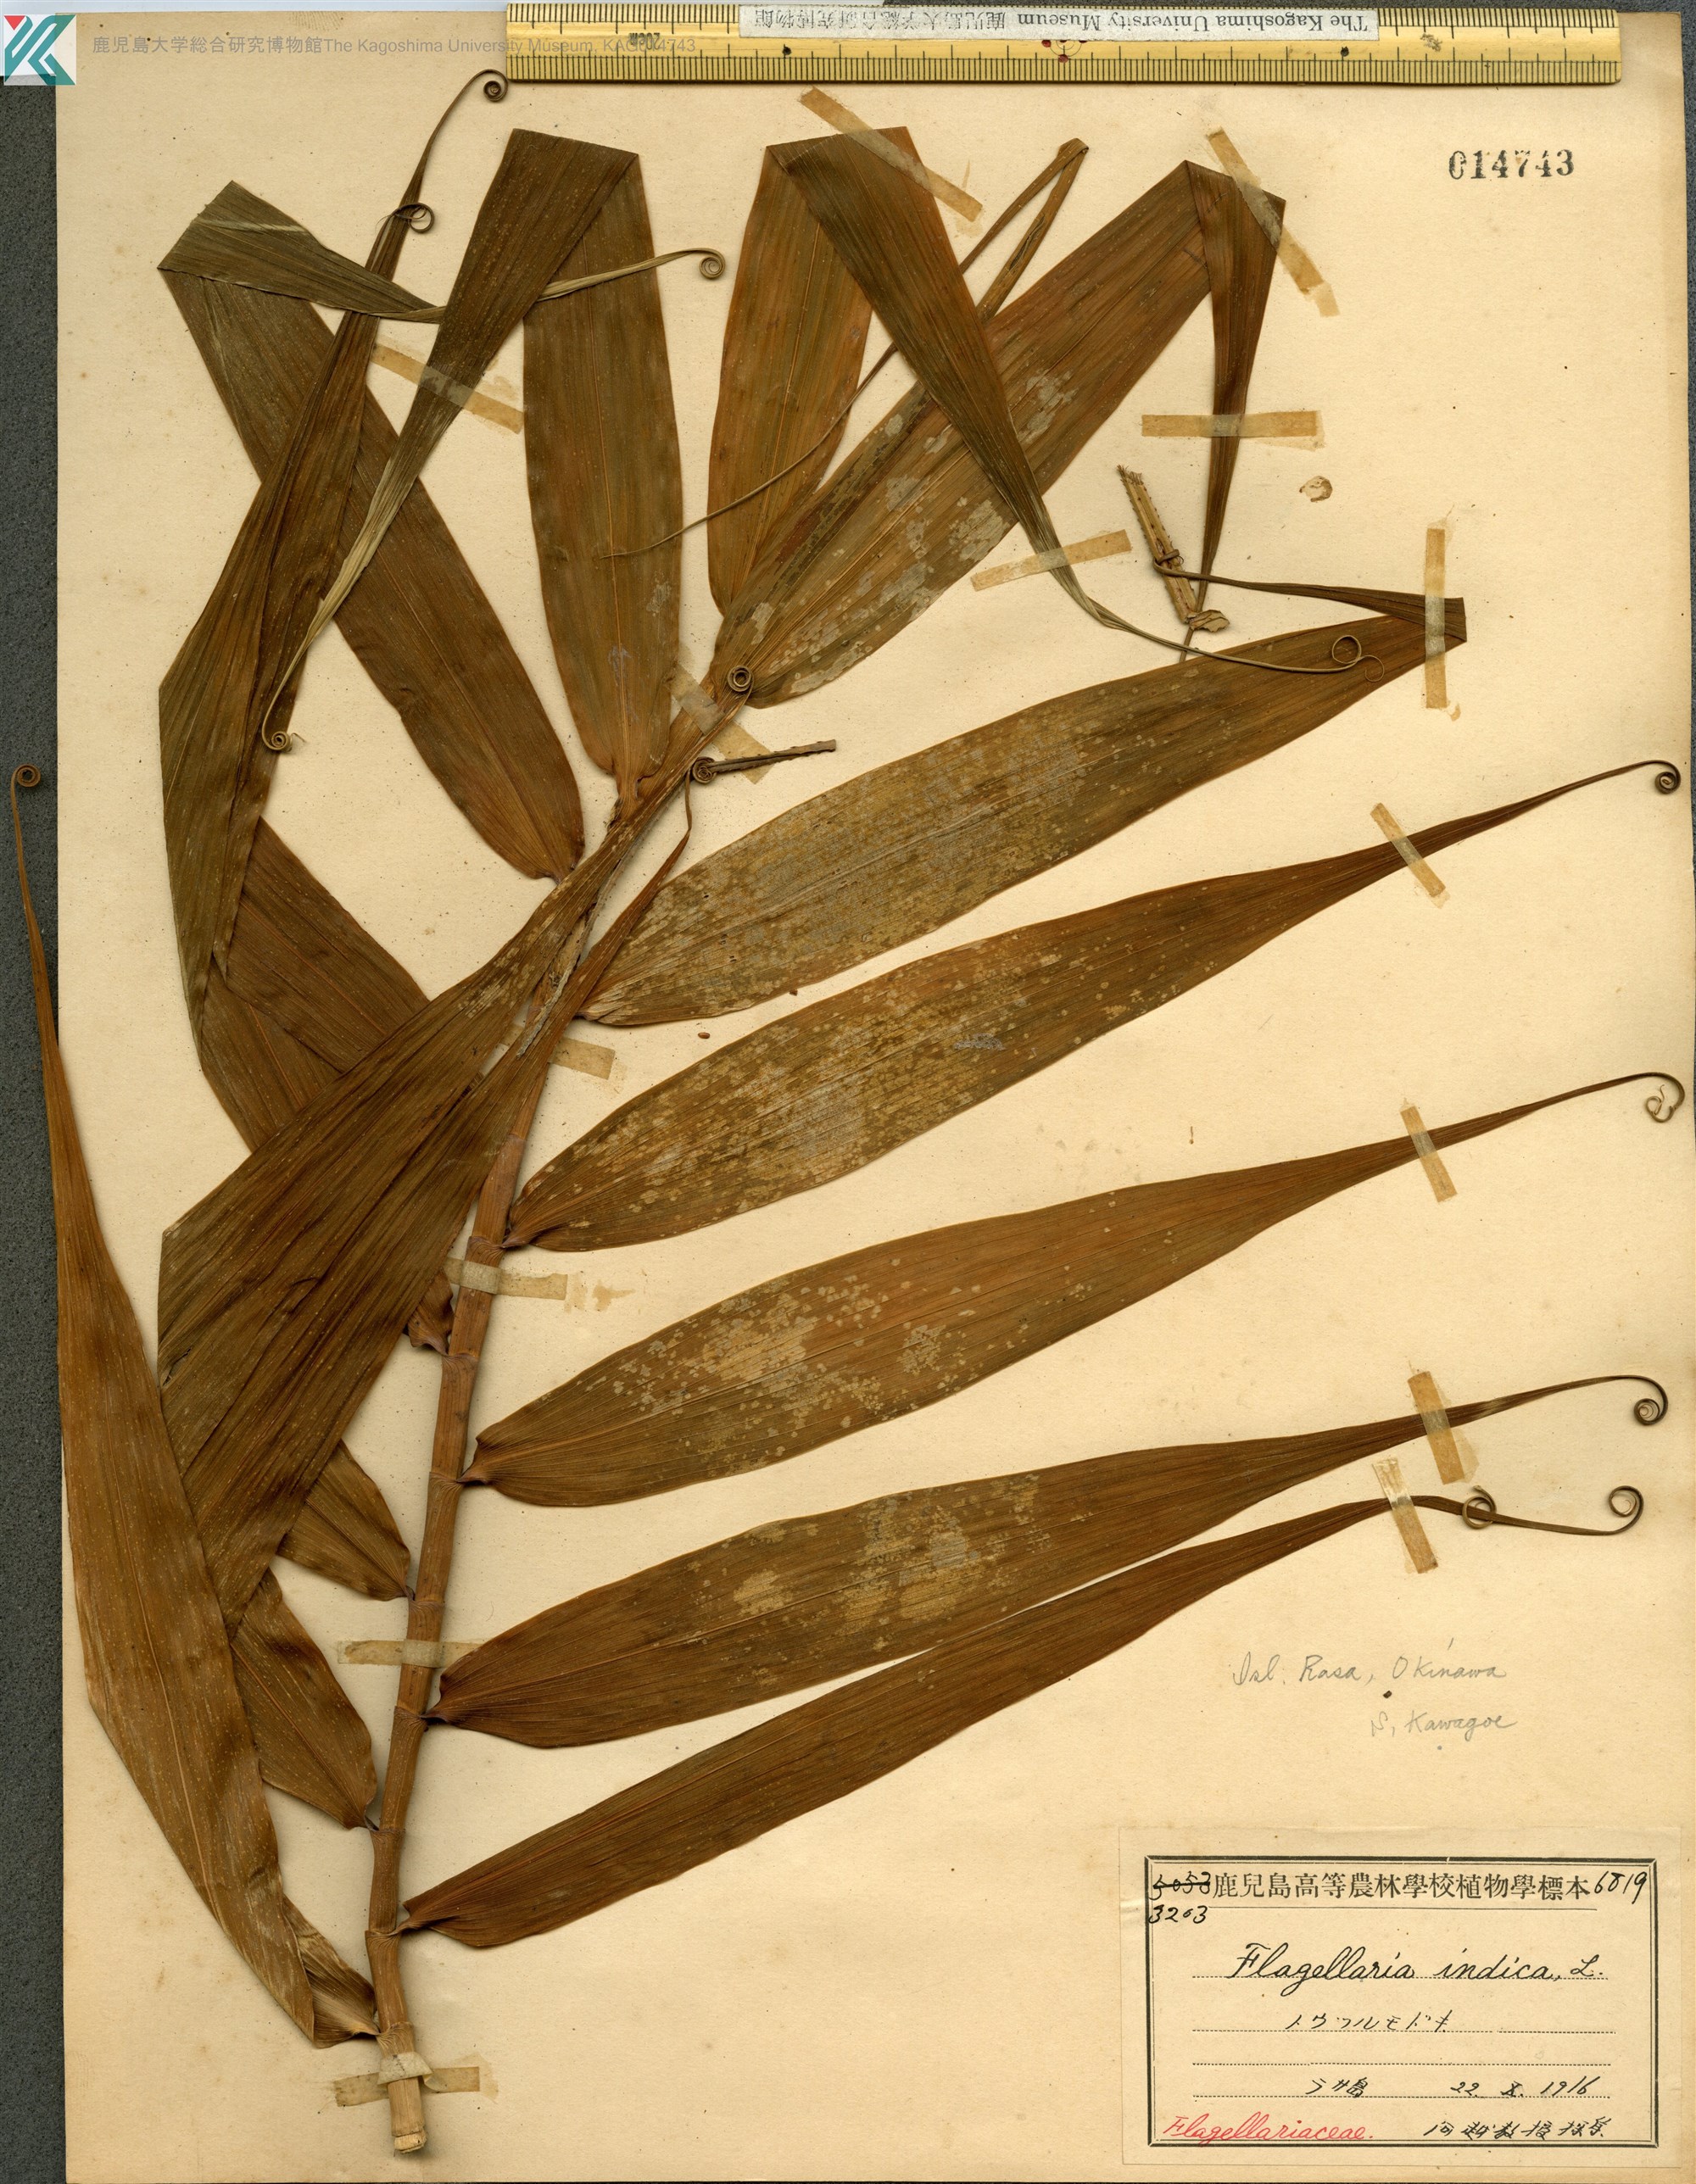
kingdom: Plantae
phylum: Tracheophyta
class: Liliopsida
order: Poales
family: Flagellariaceae
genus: Flagellaria
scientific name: Flagellaria indica
